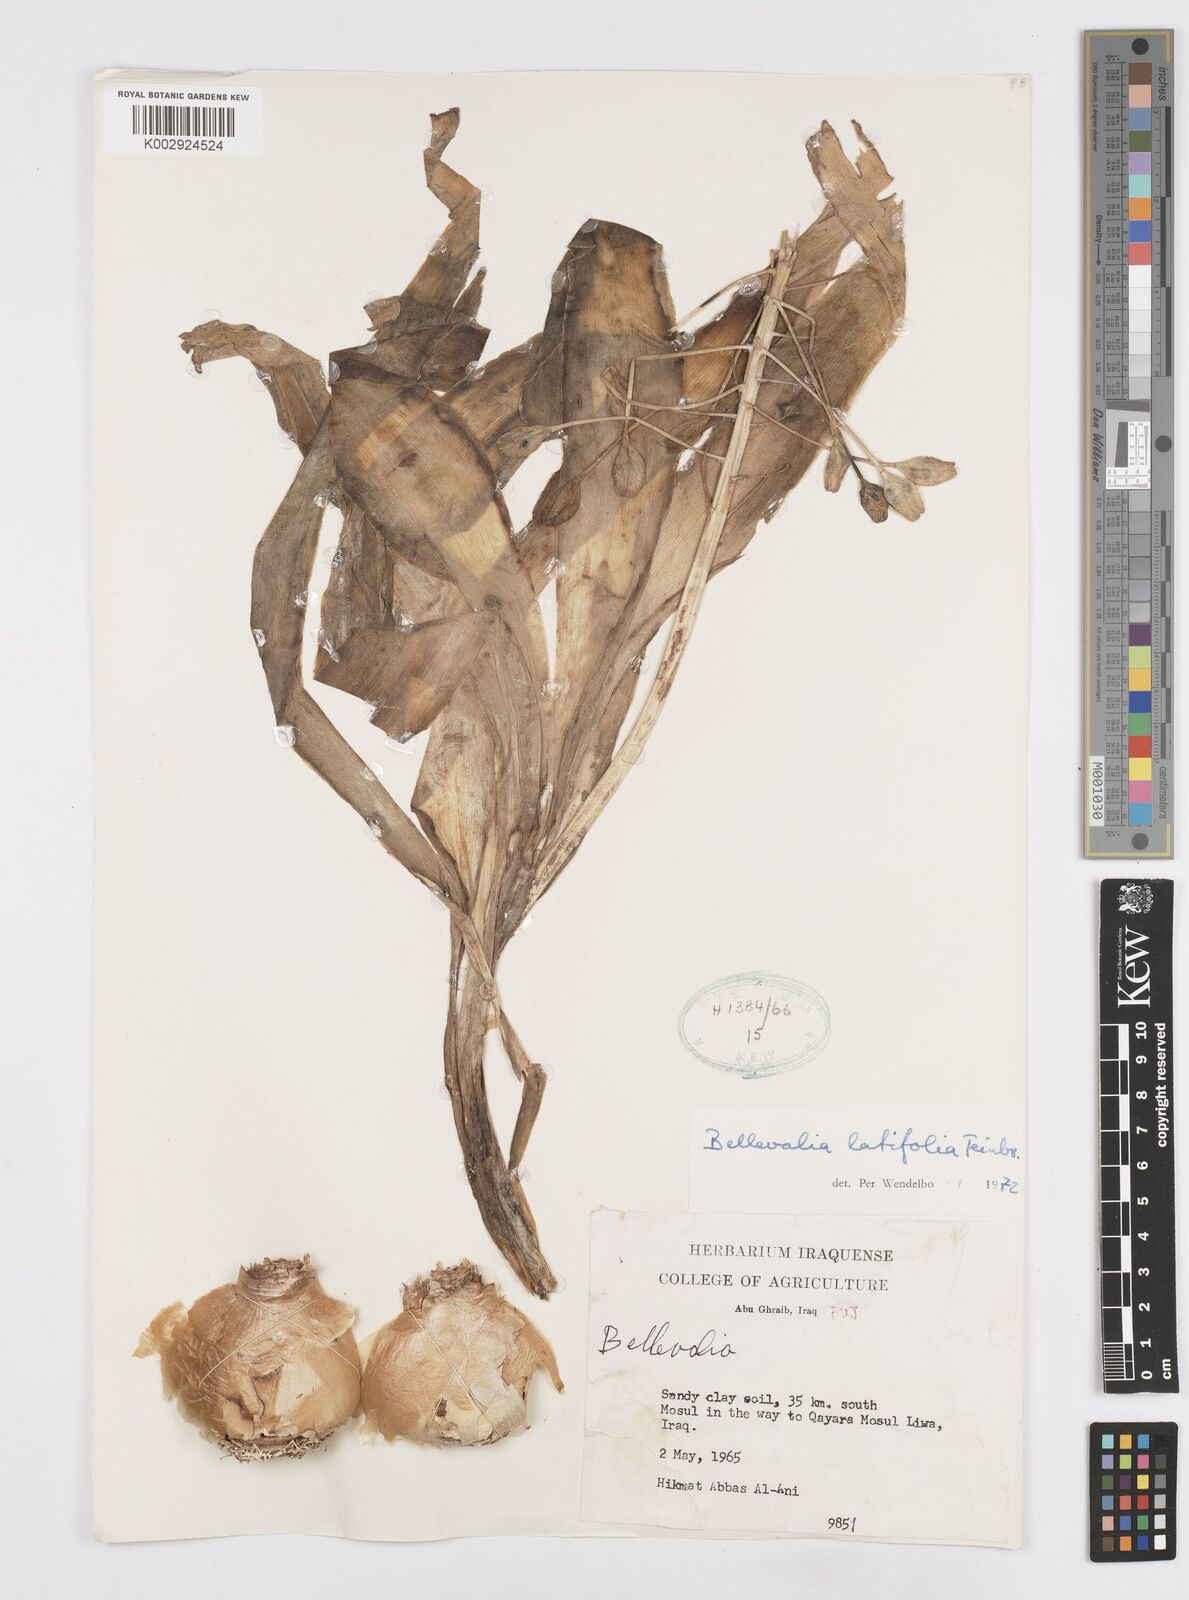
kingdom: Plantae
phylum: Tracheophyta
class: Liliopsida
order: Asparagales
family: Asparagaceae
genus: Bellevalia
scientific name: Bellevalia olivieri
